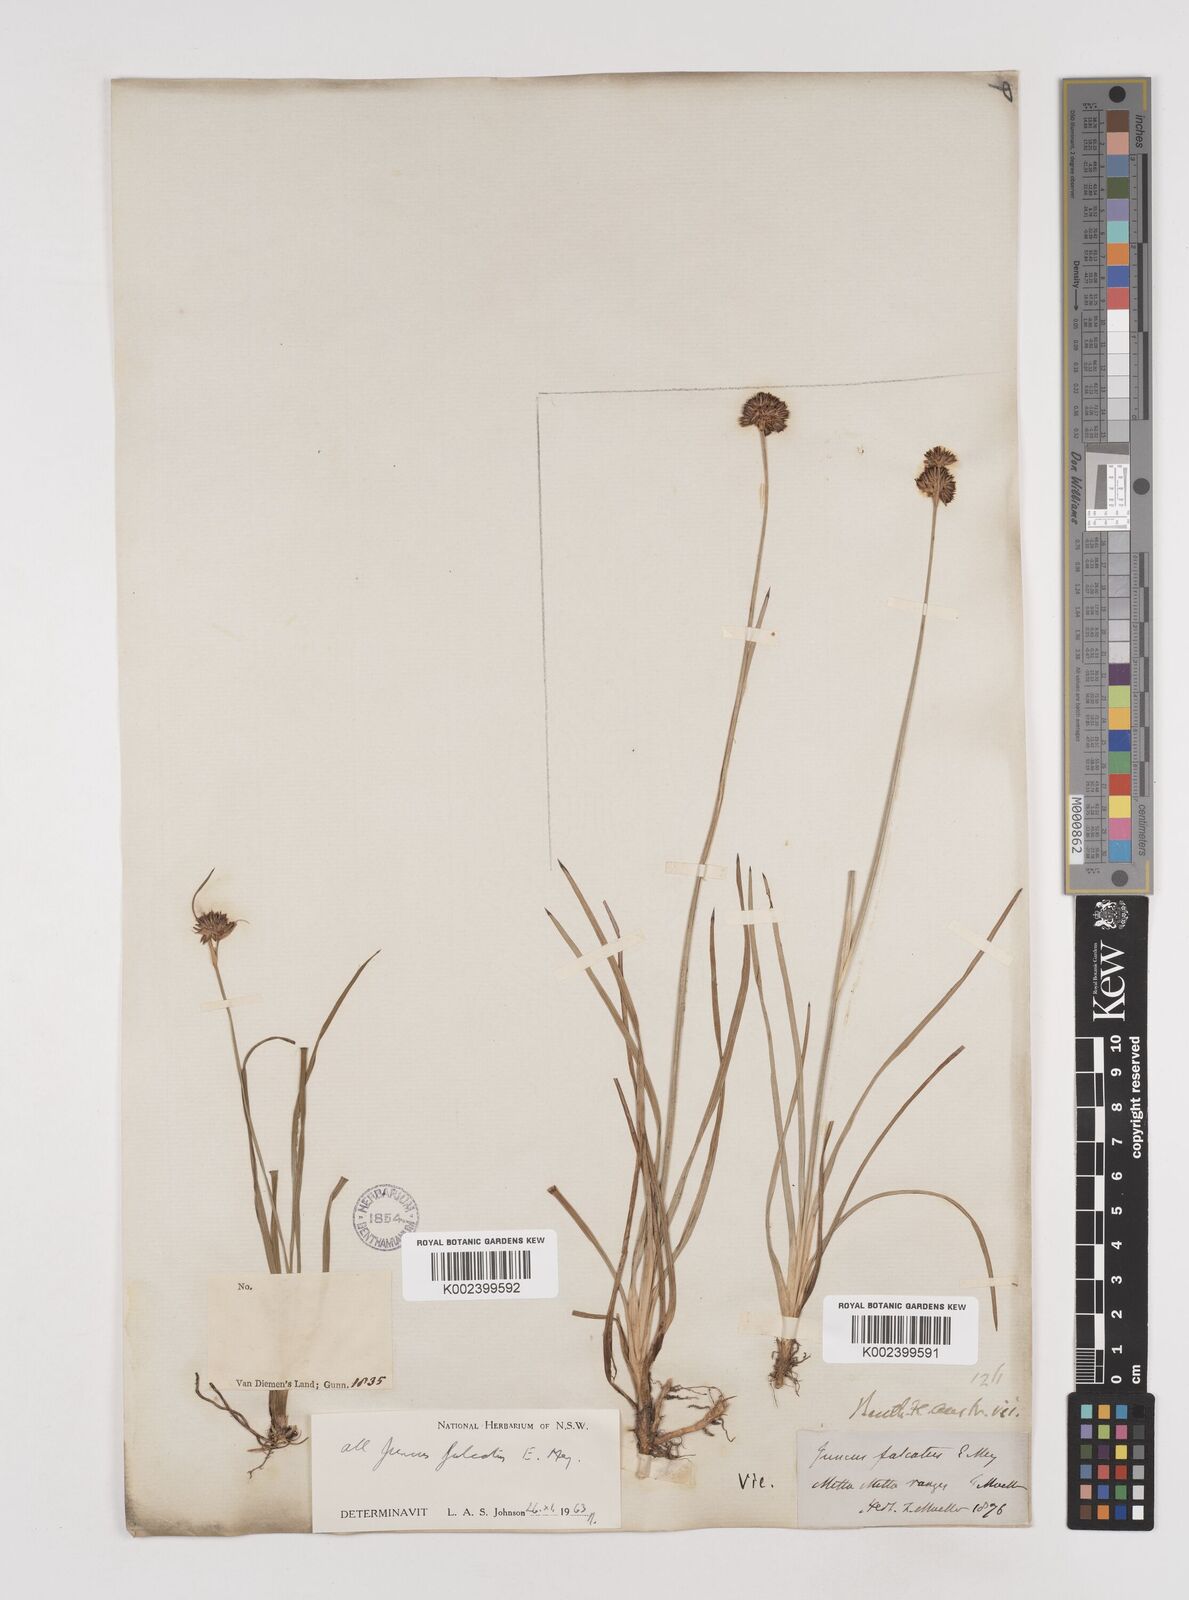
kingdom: Plantae
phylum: Tracheophyta
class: Liliopsida
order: Poales
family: Juncaceae
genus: Juncus
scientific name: Juncus falcatus
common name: Sickle-leaf rush
